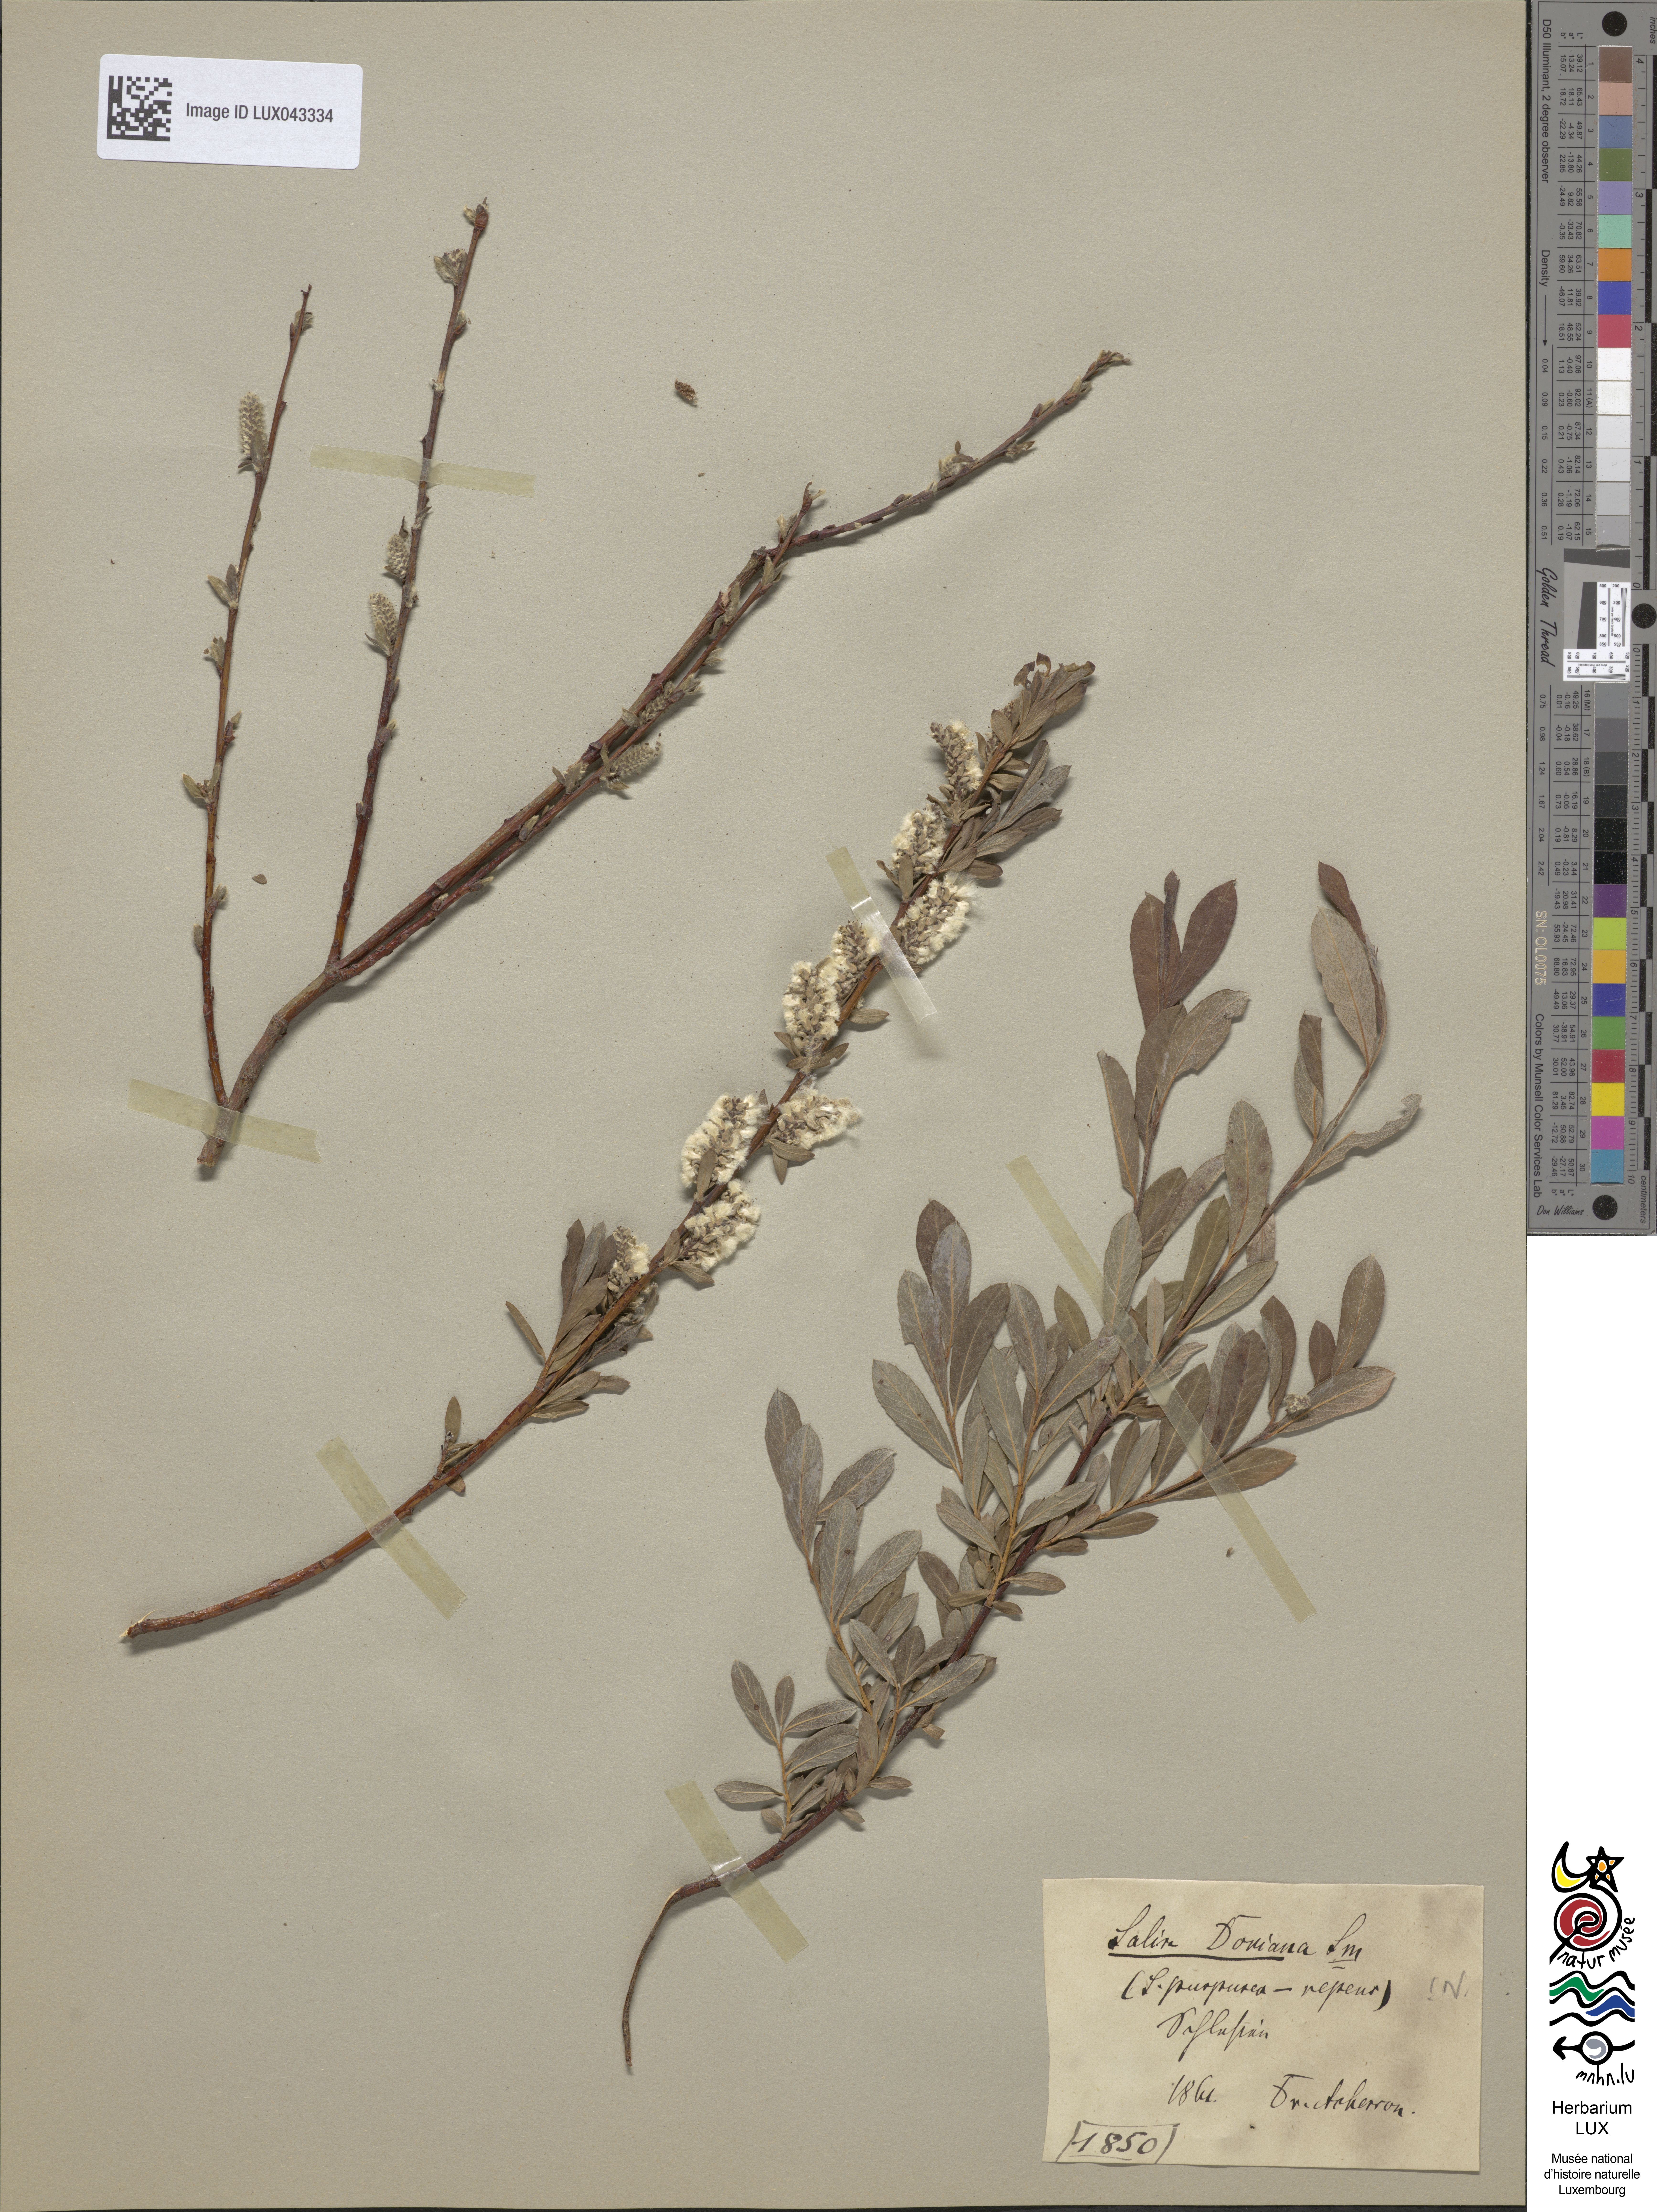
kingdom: Plantae
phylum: Tracheophyta
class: Magnoliopsida
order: Malpighiales
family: Salicaceae
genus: Salix
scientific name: Salix
